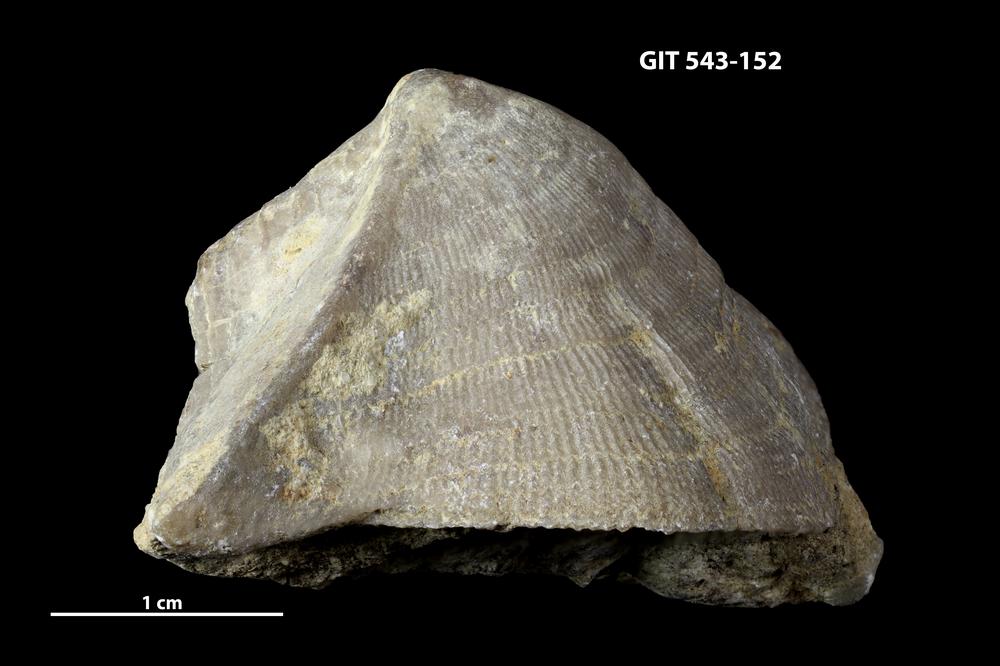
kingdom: Animalia
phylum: Brachiopoda
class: Rhynchonellata
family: Clitambonitidae
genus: Clinambon
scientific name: Clinambon anomalus
